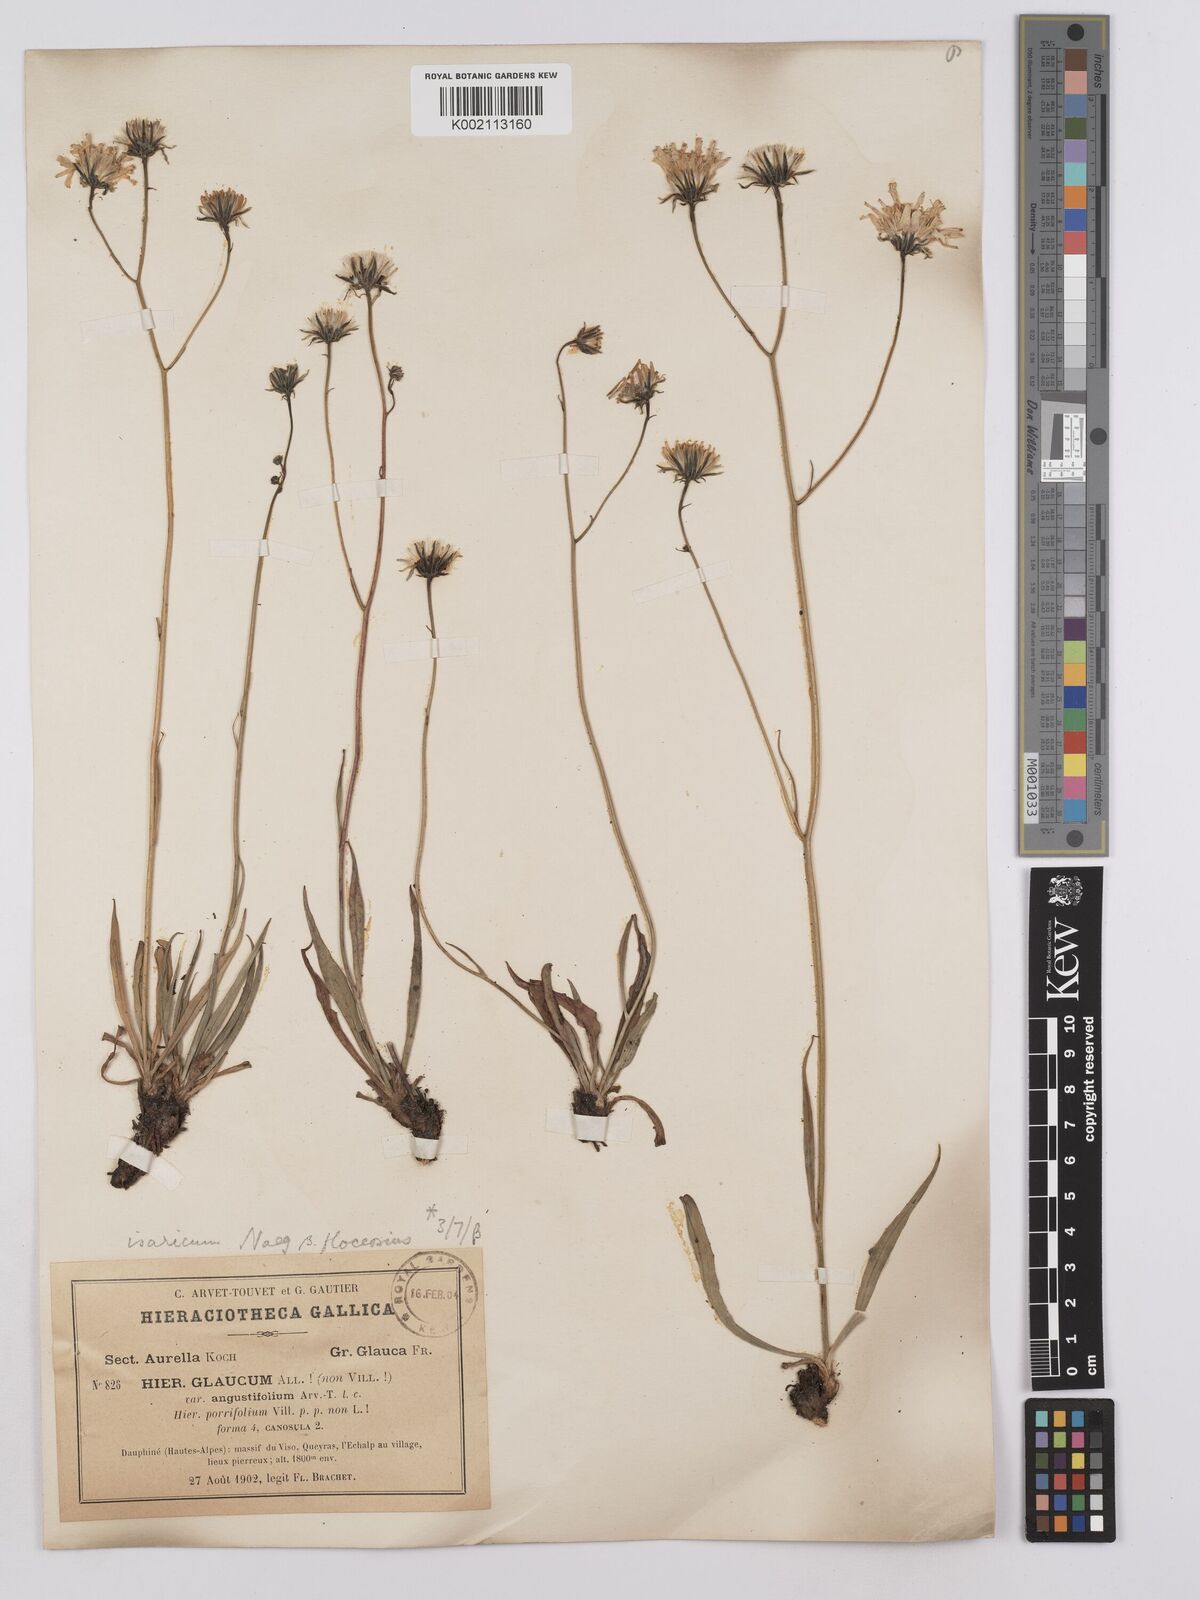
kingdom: Plantae
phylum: Tracheophyta
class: Magnoliopsida
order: Asterales
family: Asteraceae
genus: Hieracium
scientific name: Hieracium glaucum
